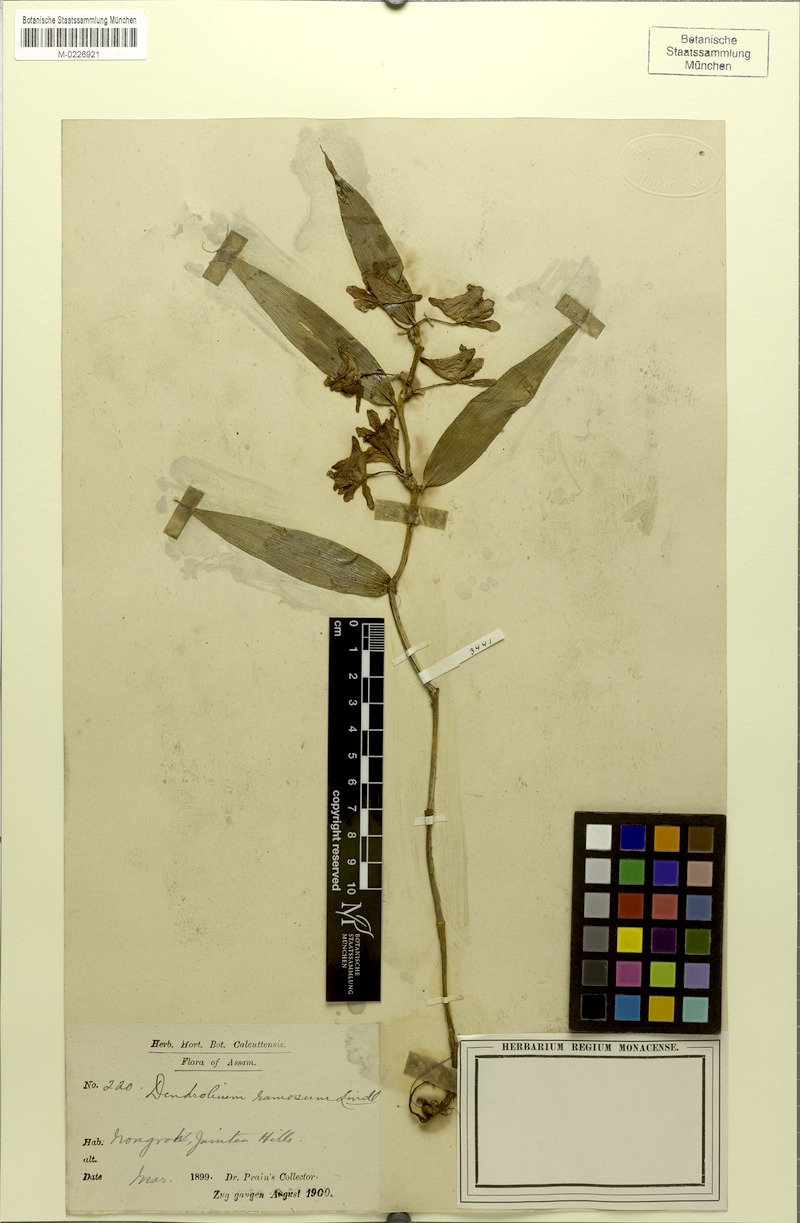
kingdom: Plantae
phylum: Tracheophyta
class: Liliopsida
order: Asparagales
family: Orchidaceae
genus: Dendrobium
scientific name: Dendrobium ruckeri
